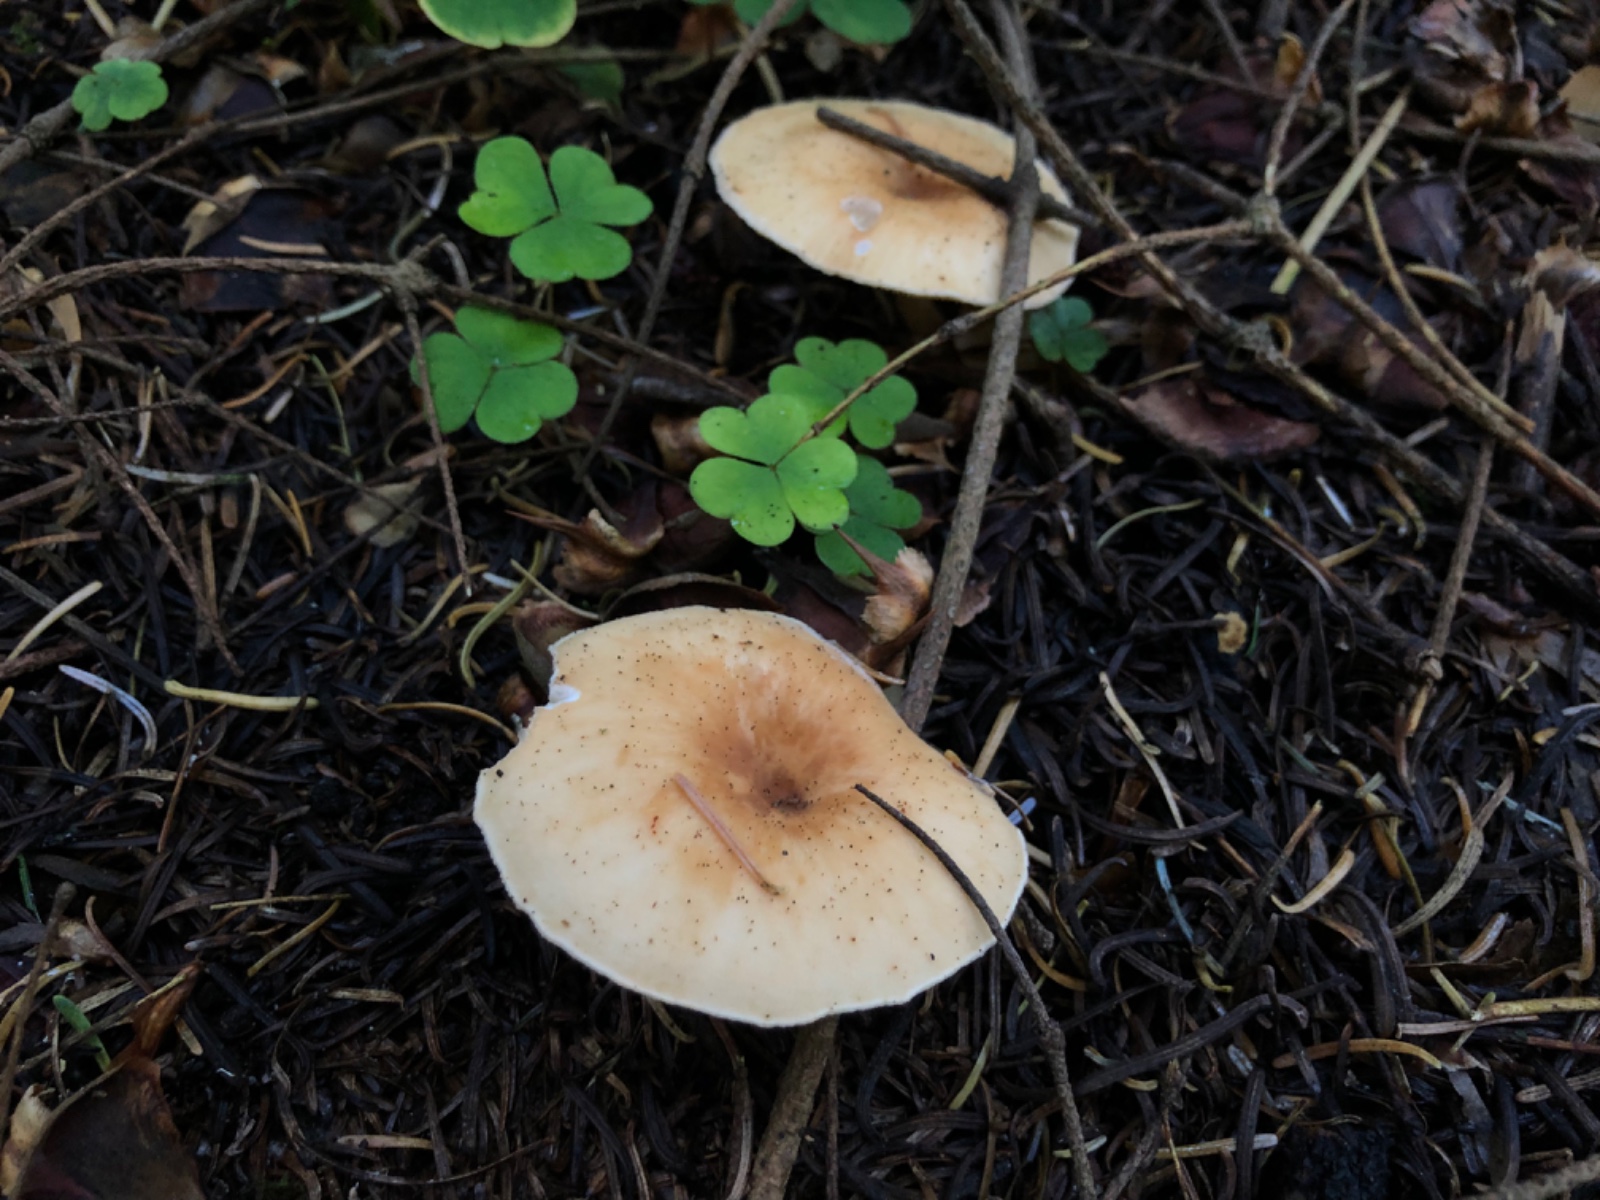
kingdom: Fungi
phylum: Basidiomycota
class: Agaricomycetes
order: Agaricales
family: Tricholomataceae
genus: Paralepista
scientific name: Paralepista flaccida
